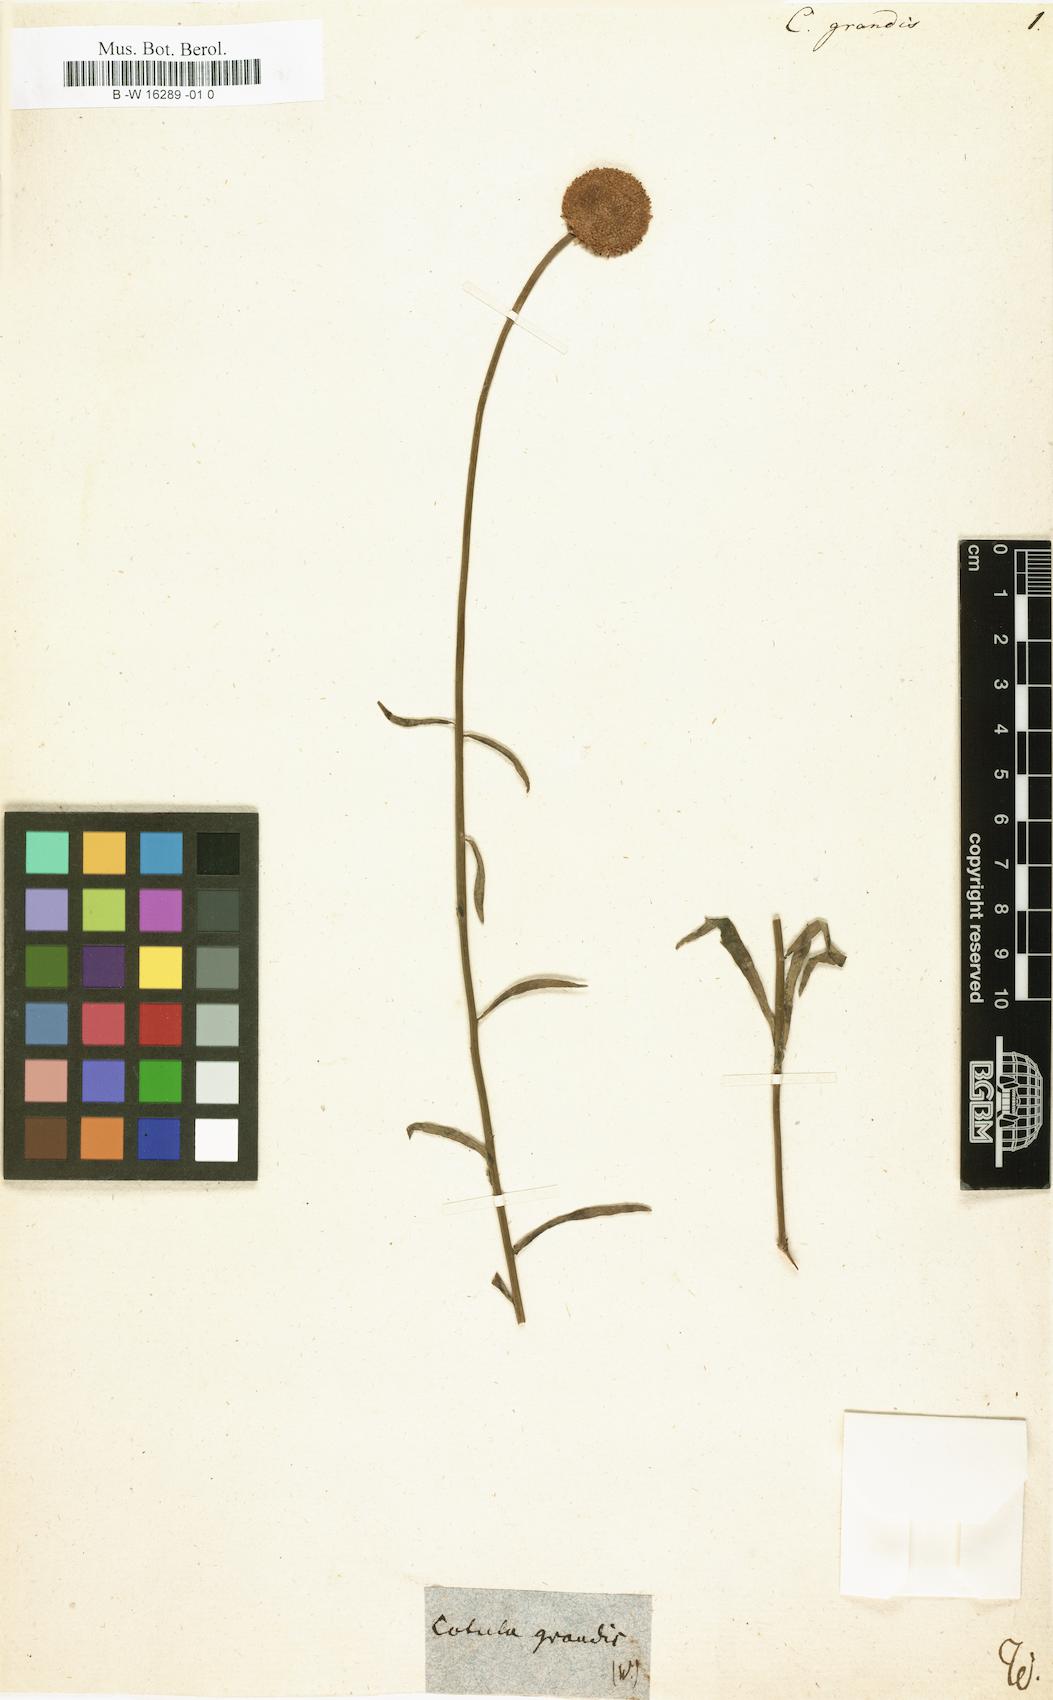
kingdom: Plantae
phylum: Tracheophyta
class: Magnoliopsida
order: Asterales
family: Asteraceae
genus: Plagius
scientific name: Plagius
